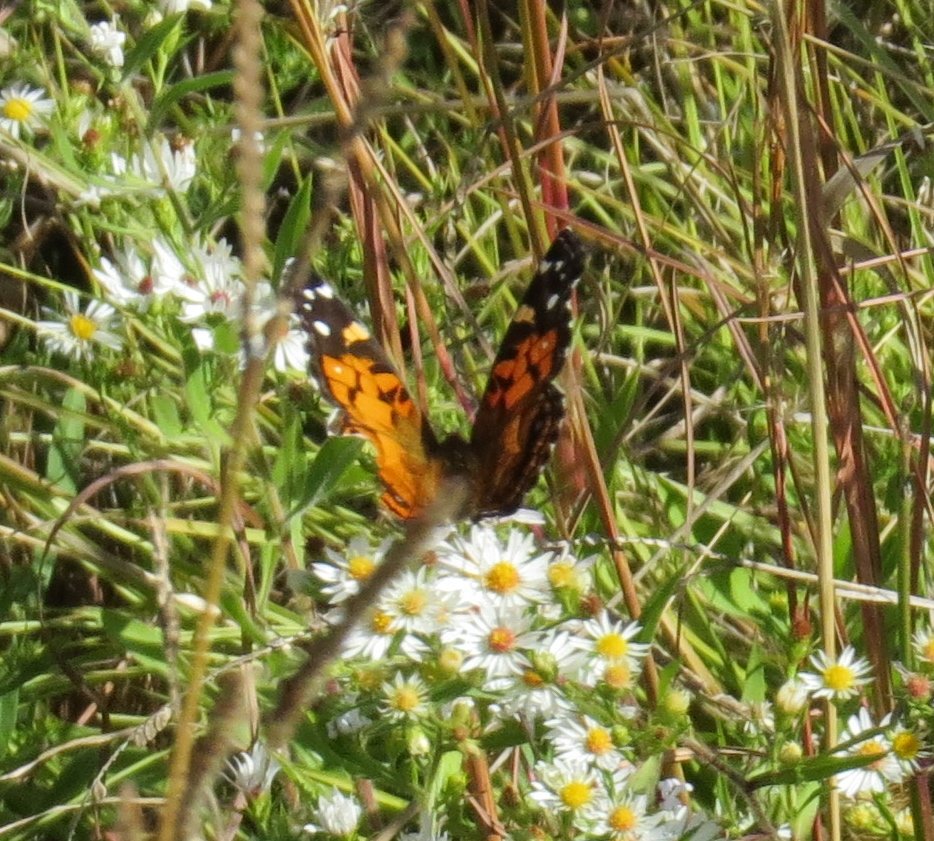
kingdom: Animalia
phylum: Arthropoda
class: Insecta
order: Lepidoptera
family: Nymphalidae
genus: Vanessa
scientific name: Vanessa virginiensis
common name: American Lady
